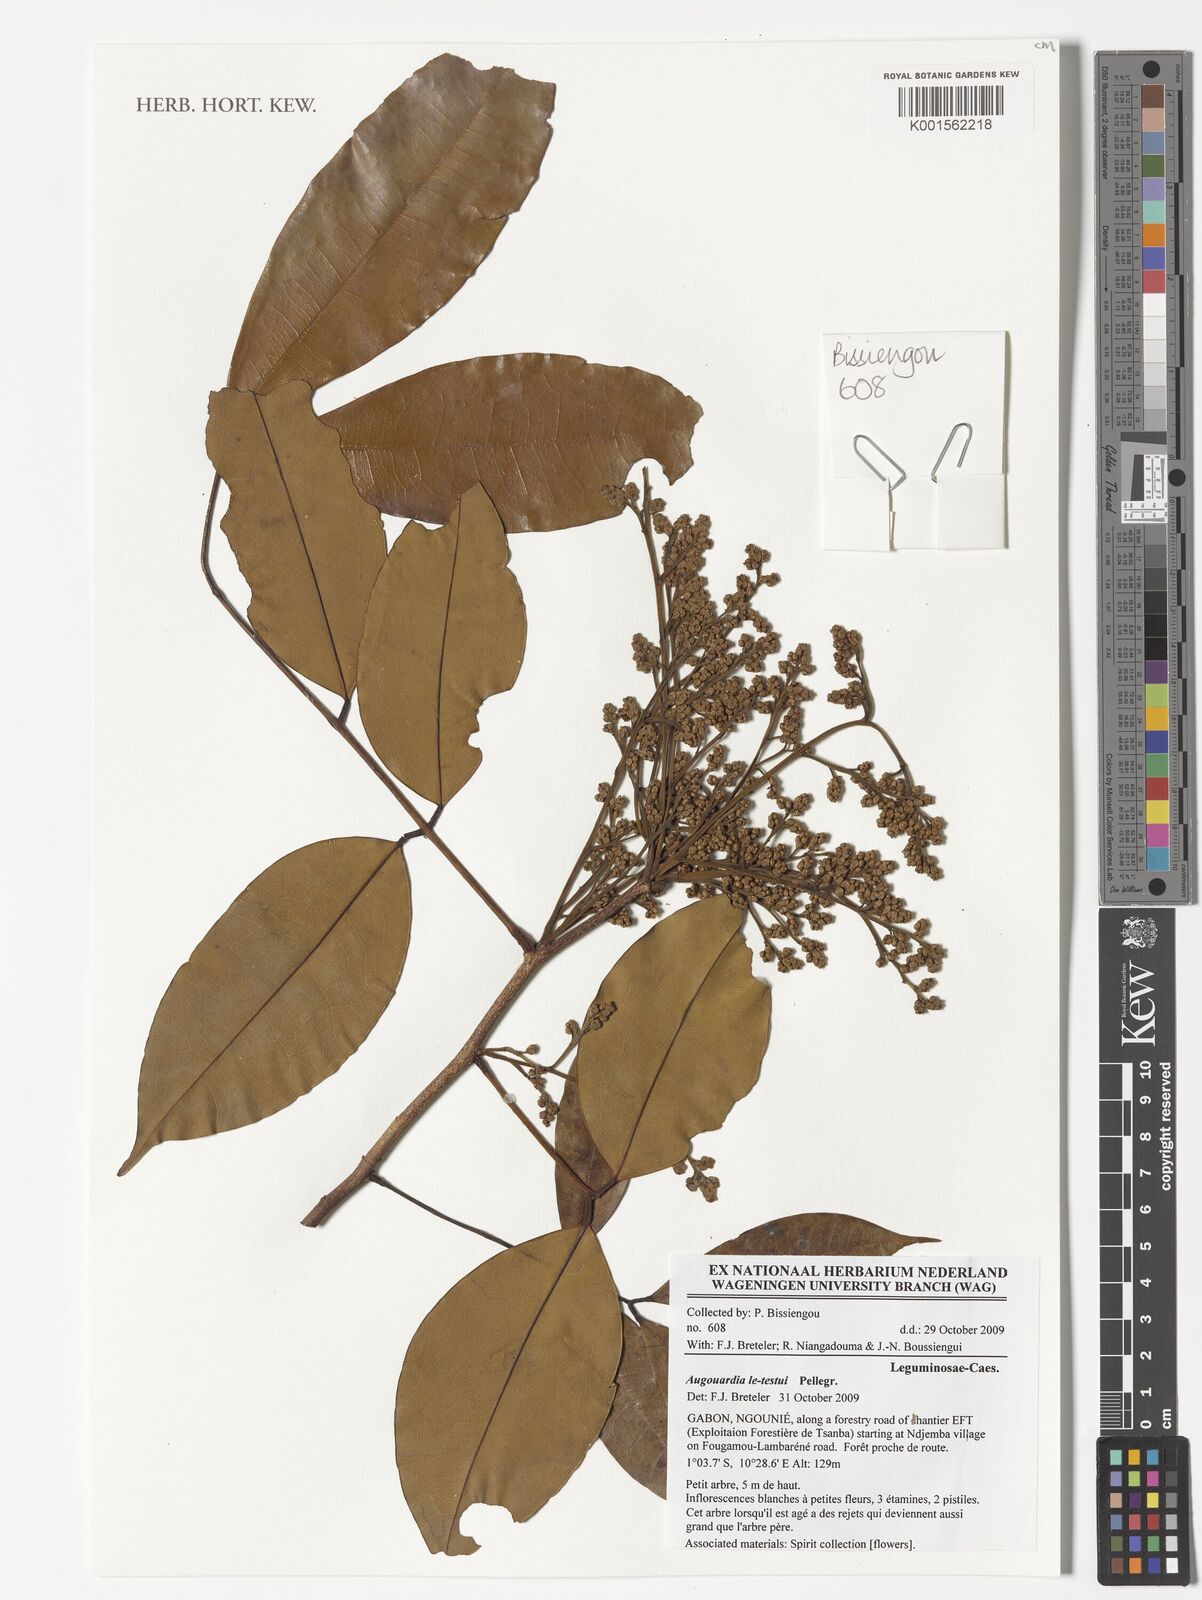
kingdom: Plantae
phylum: Tracheophyta
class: Magnoliopsida
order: Fabales
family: Fabaceae
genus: Augouardia
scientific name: Augouardia letestui
